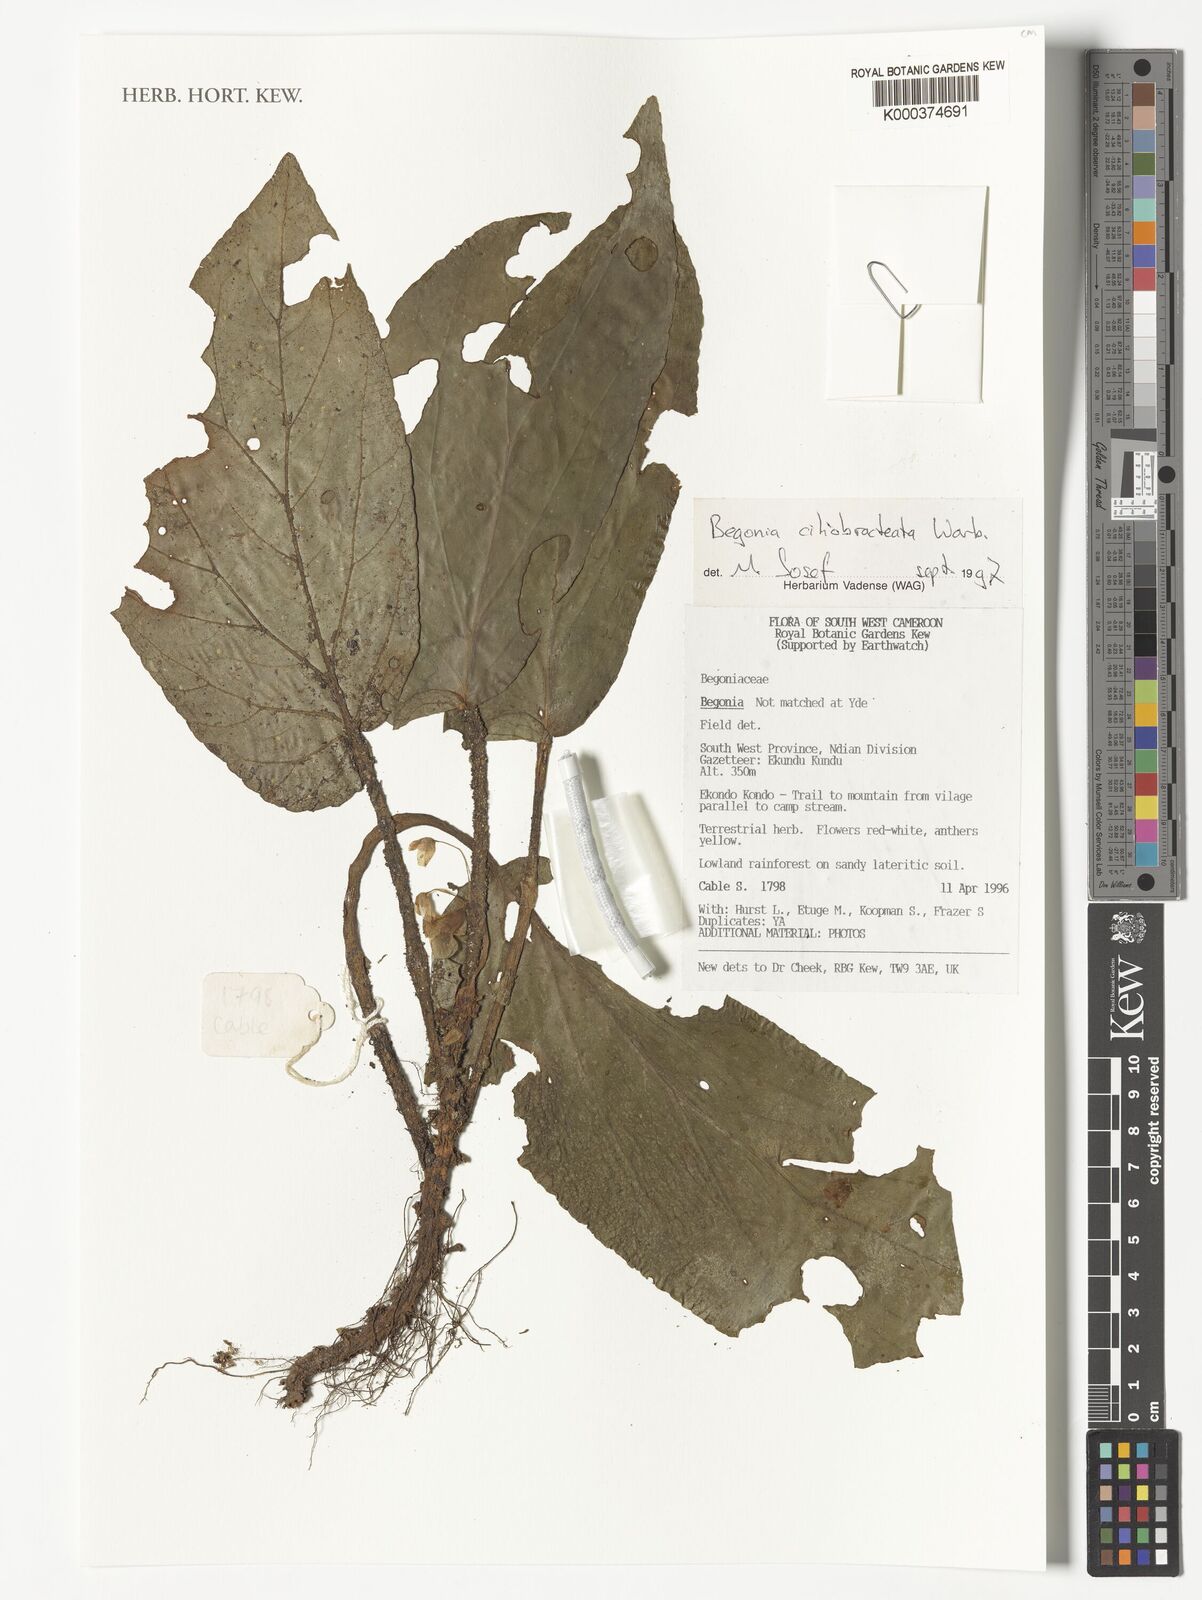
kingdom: Plantae
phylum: Tracheophyta
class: Magnoliopsida
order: Cucurbitales
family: Begoniaceae
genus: Begonia
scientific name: Begonia ciliobracteata
